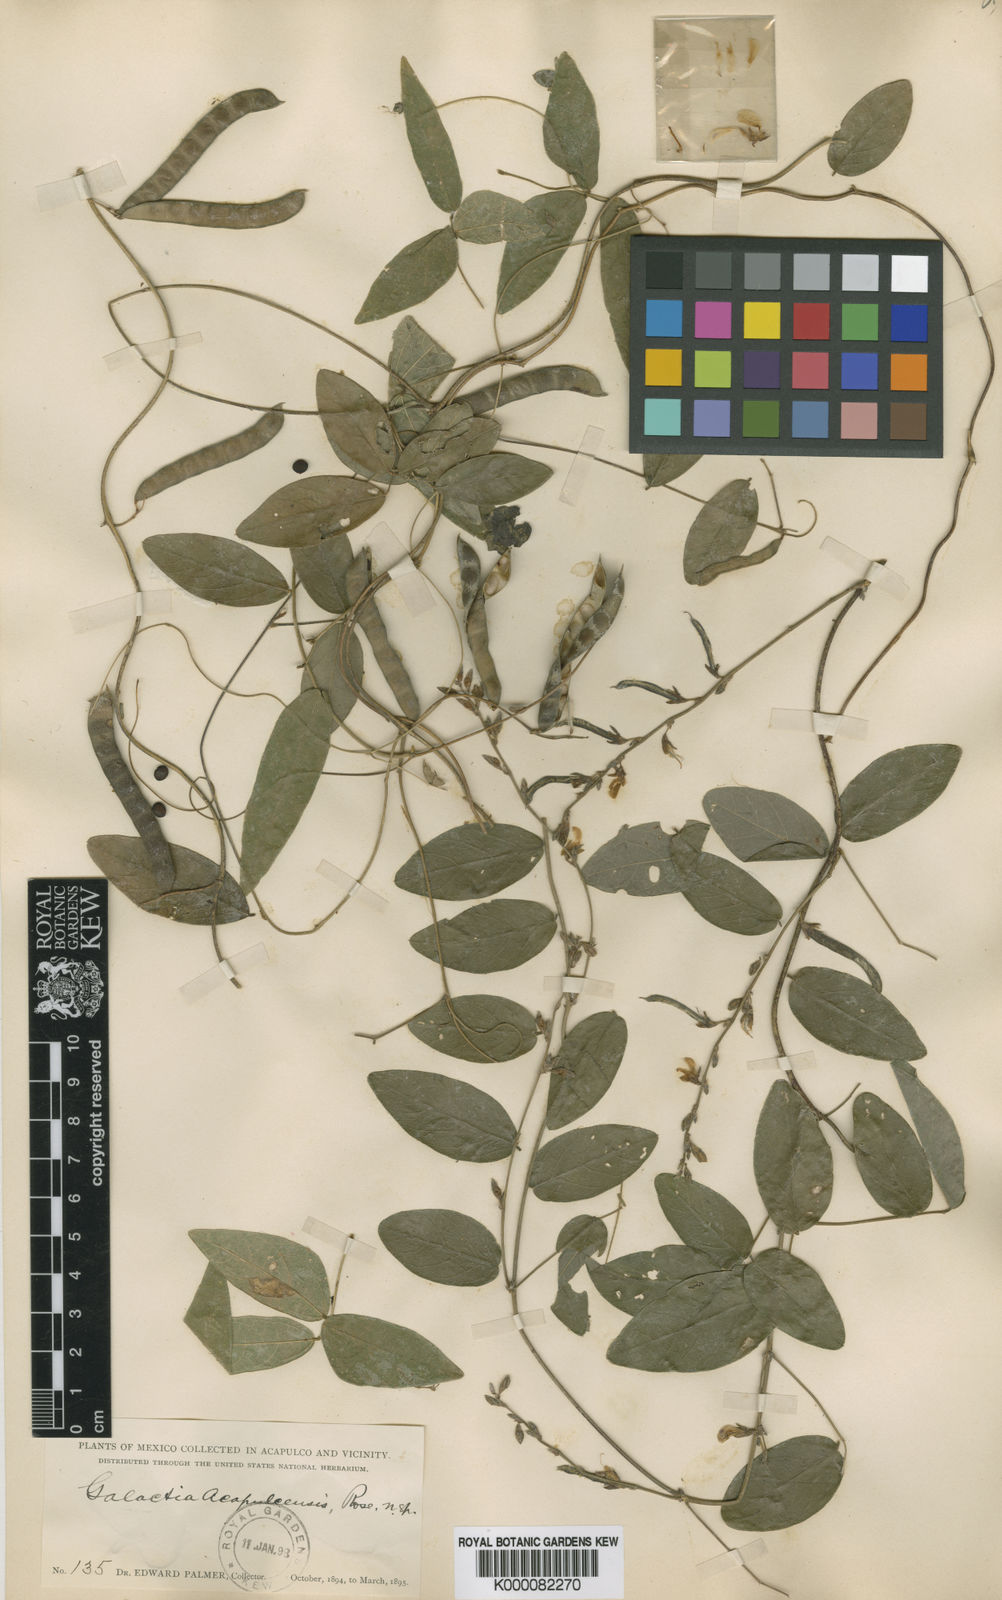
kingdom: Plantae
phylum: Tracheophyta
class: Magnoliopsida
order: Fabales
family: Fabaceae
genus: Galactia
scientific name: Galactia acapulcensis
